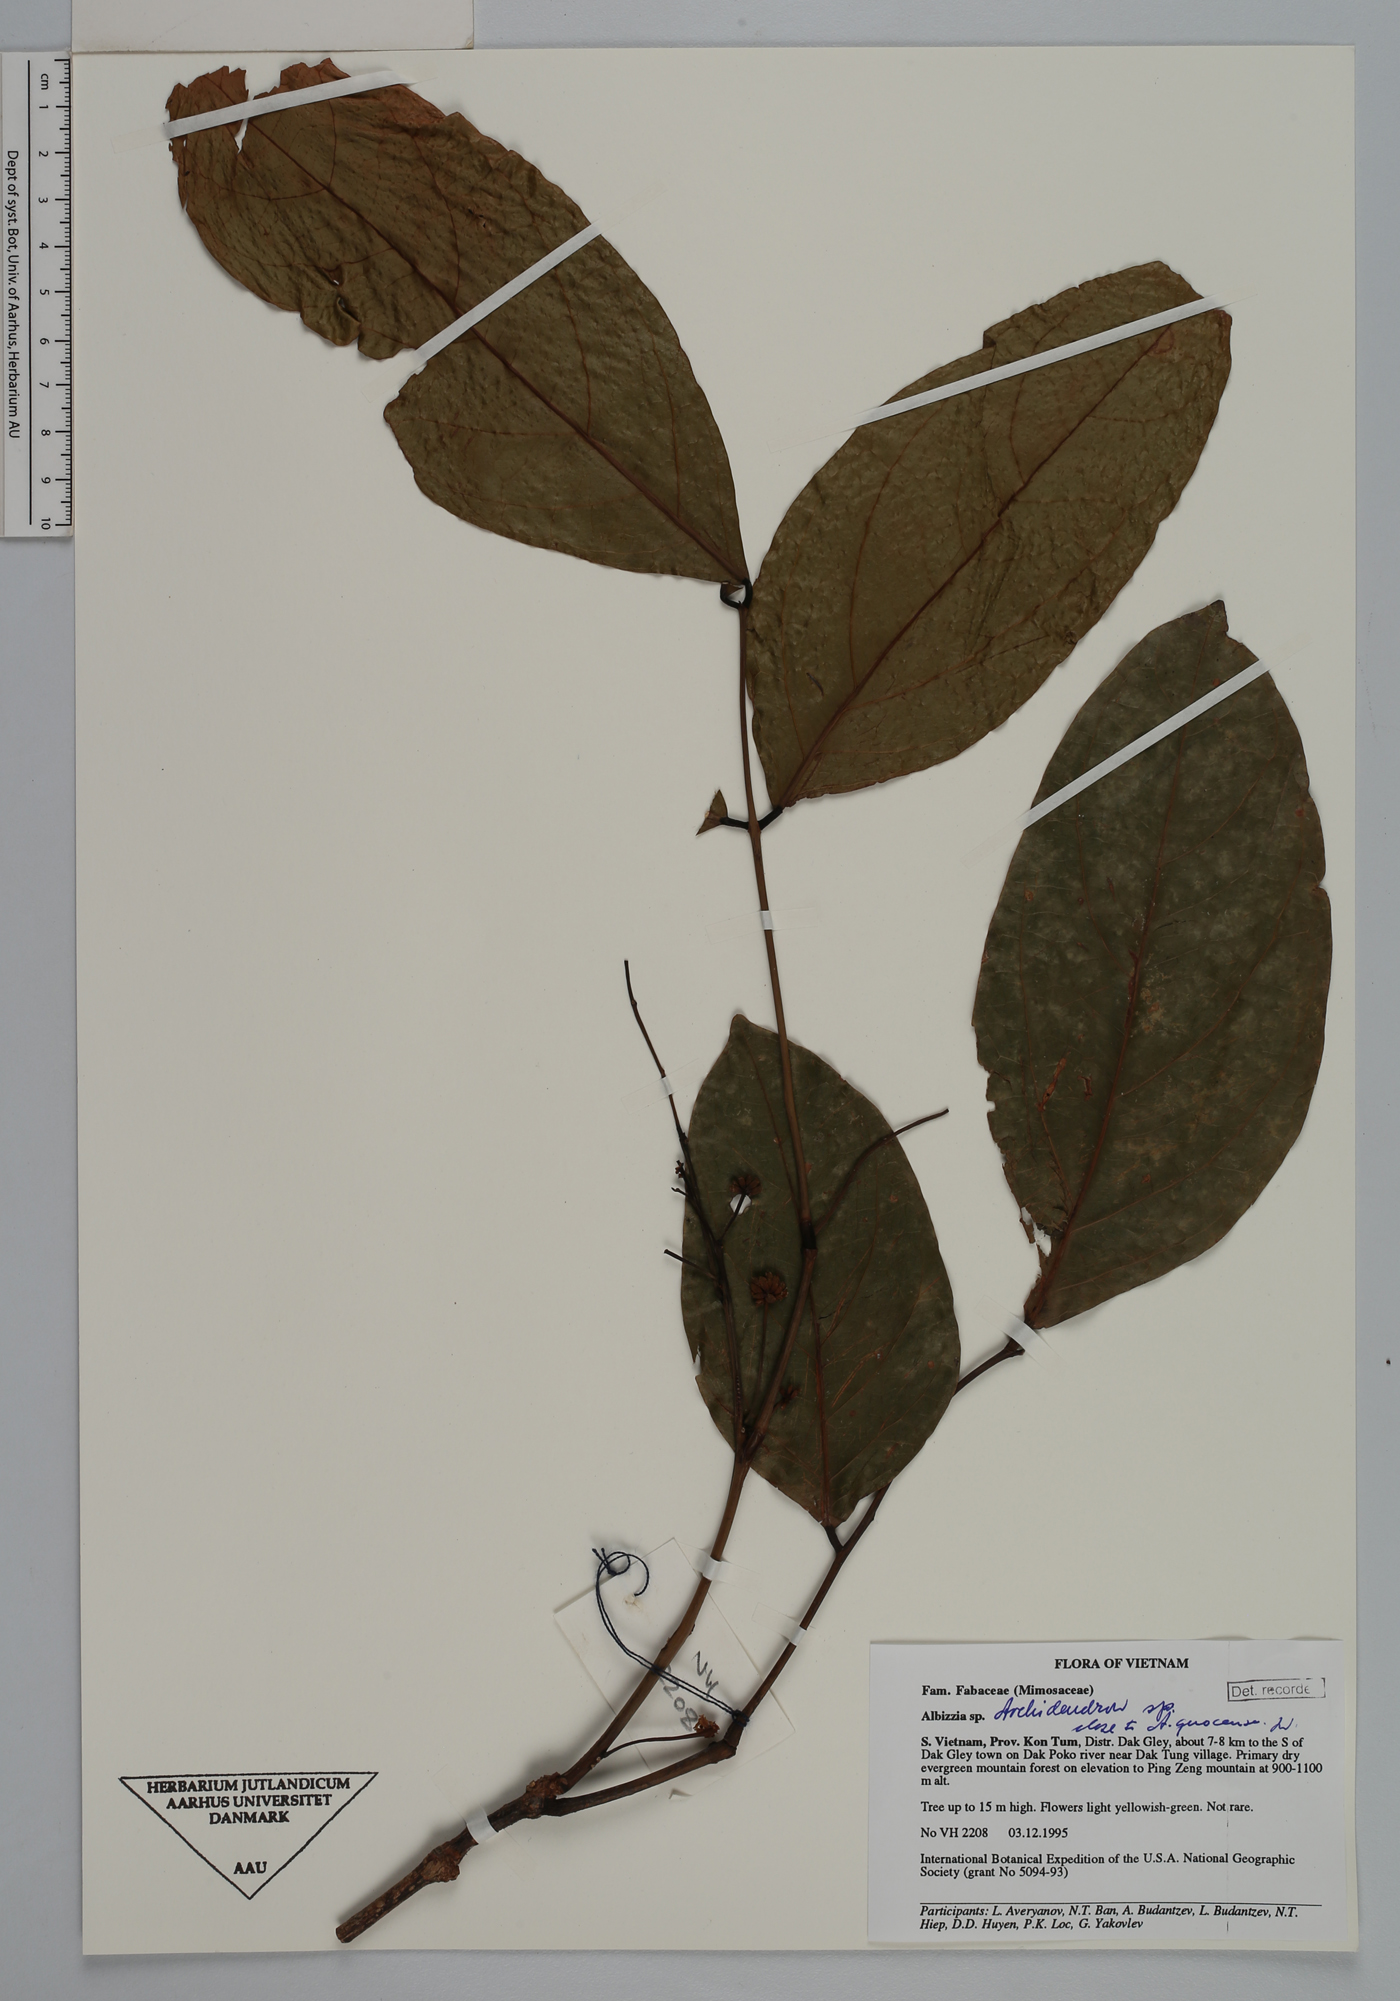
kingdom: Plantae
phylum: Tracheophyta
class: Magnoliopsida
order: Fabales
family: Fabaceae
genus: Archidendron
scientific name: Archidendron
